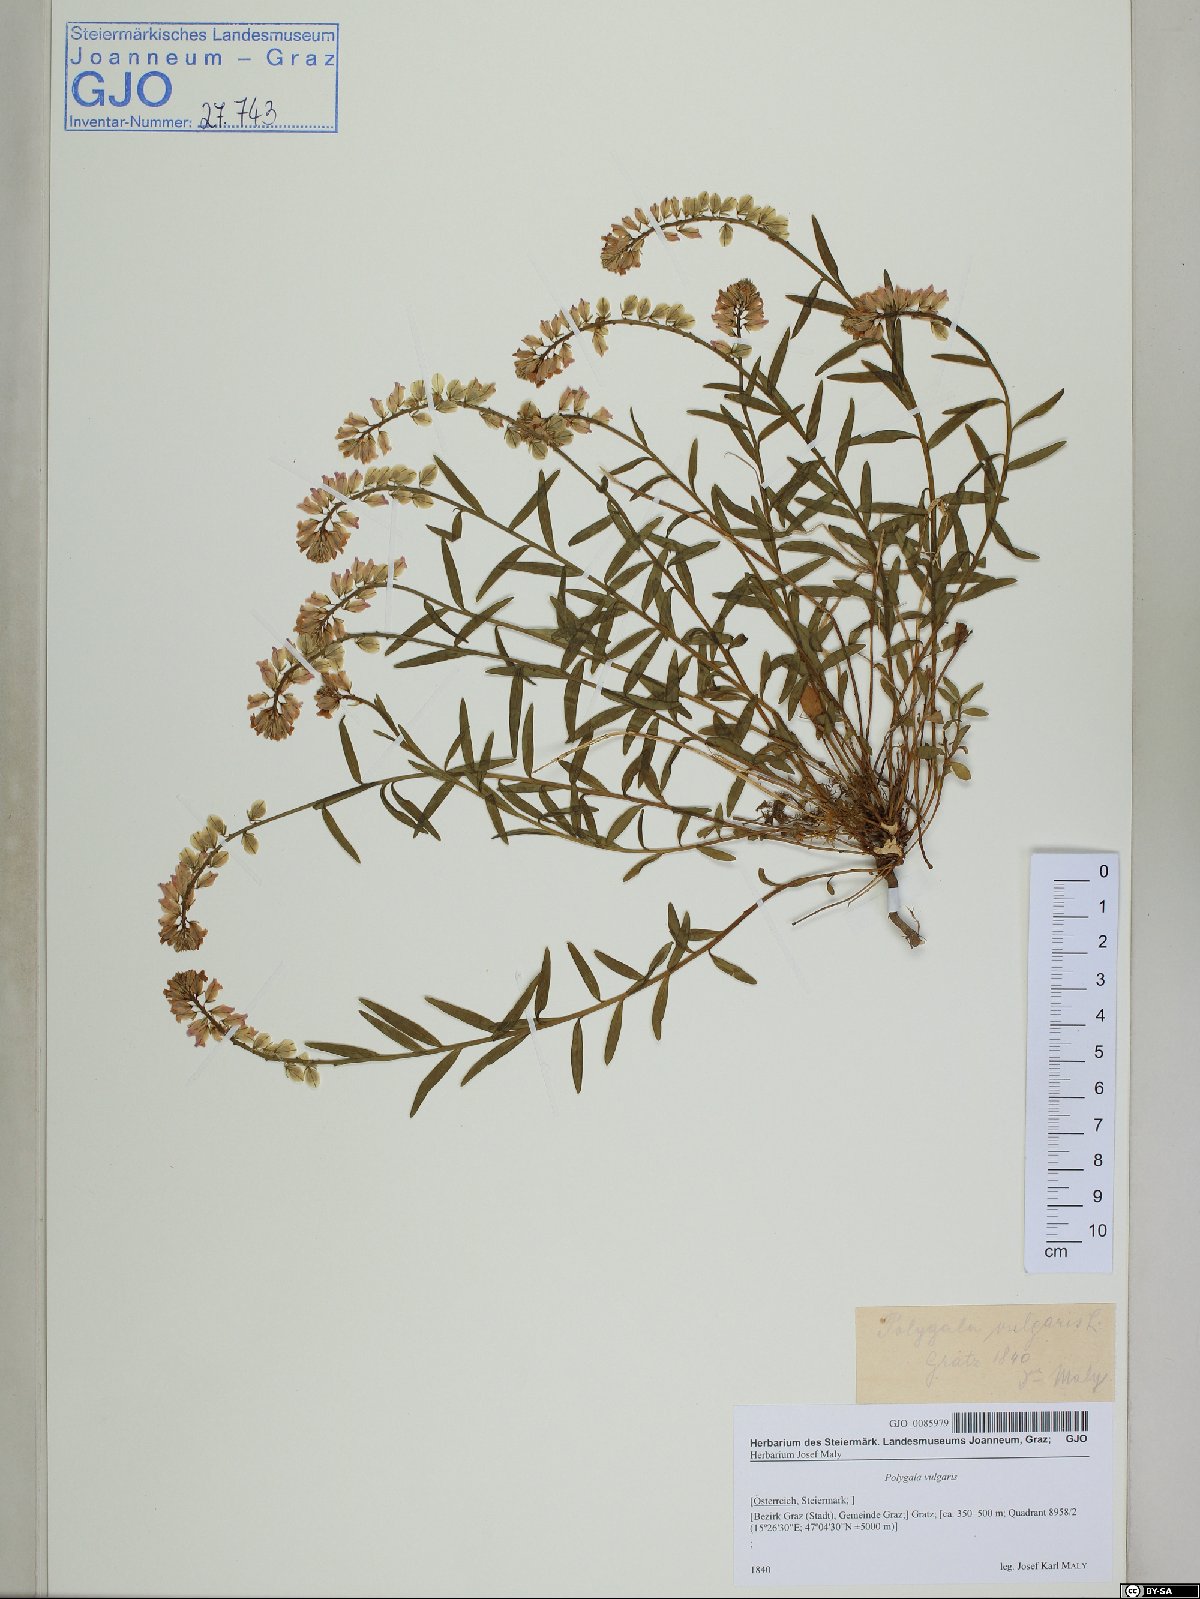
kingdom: Plantae
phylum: Tracheophyta
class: Magnoliopsida
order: Fabales
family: Polygalaceae
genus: Polygala
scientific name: Polygala vulgaris
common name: Common milkwort
